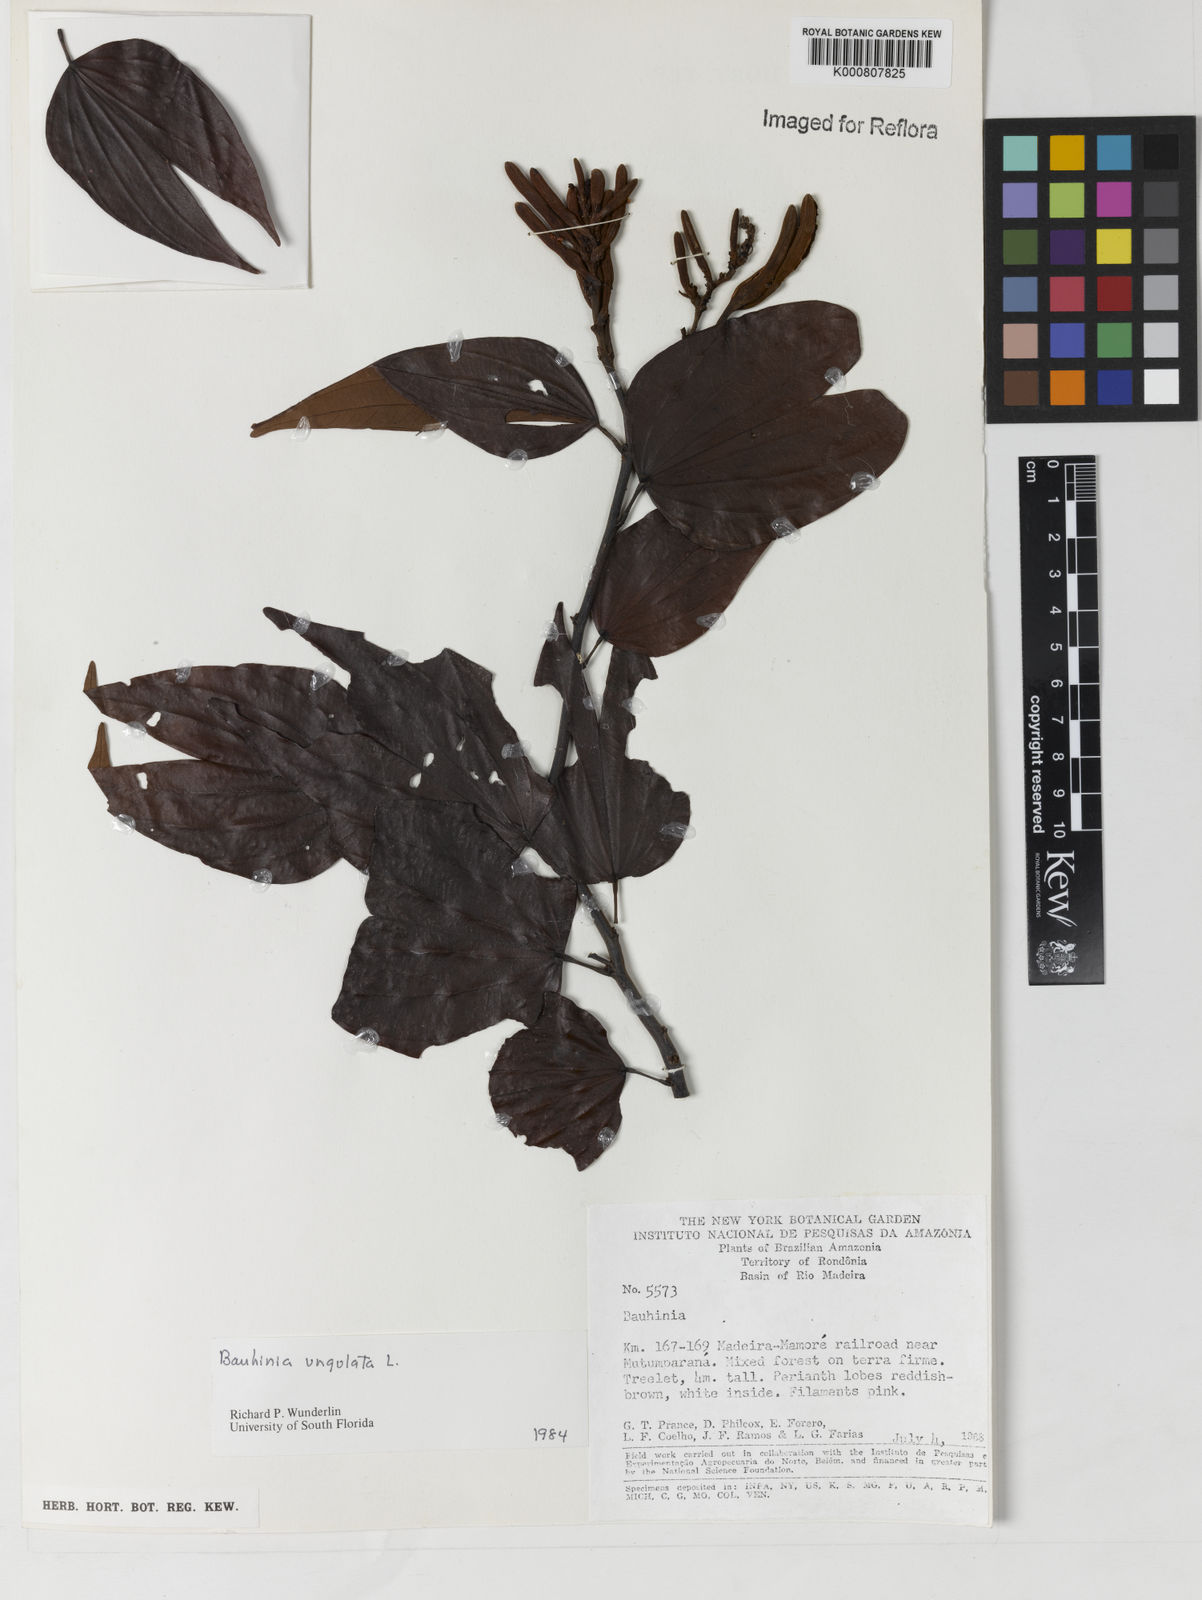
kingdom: Plantae
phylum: Tracheophyta
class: Magnoliopsida
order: Fabales
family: Fabaceae
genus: Bauhinia
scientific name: Bauhinia ungulata
